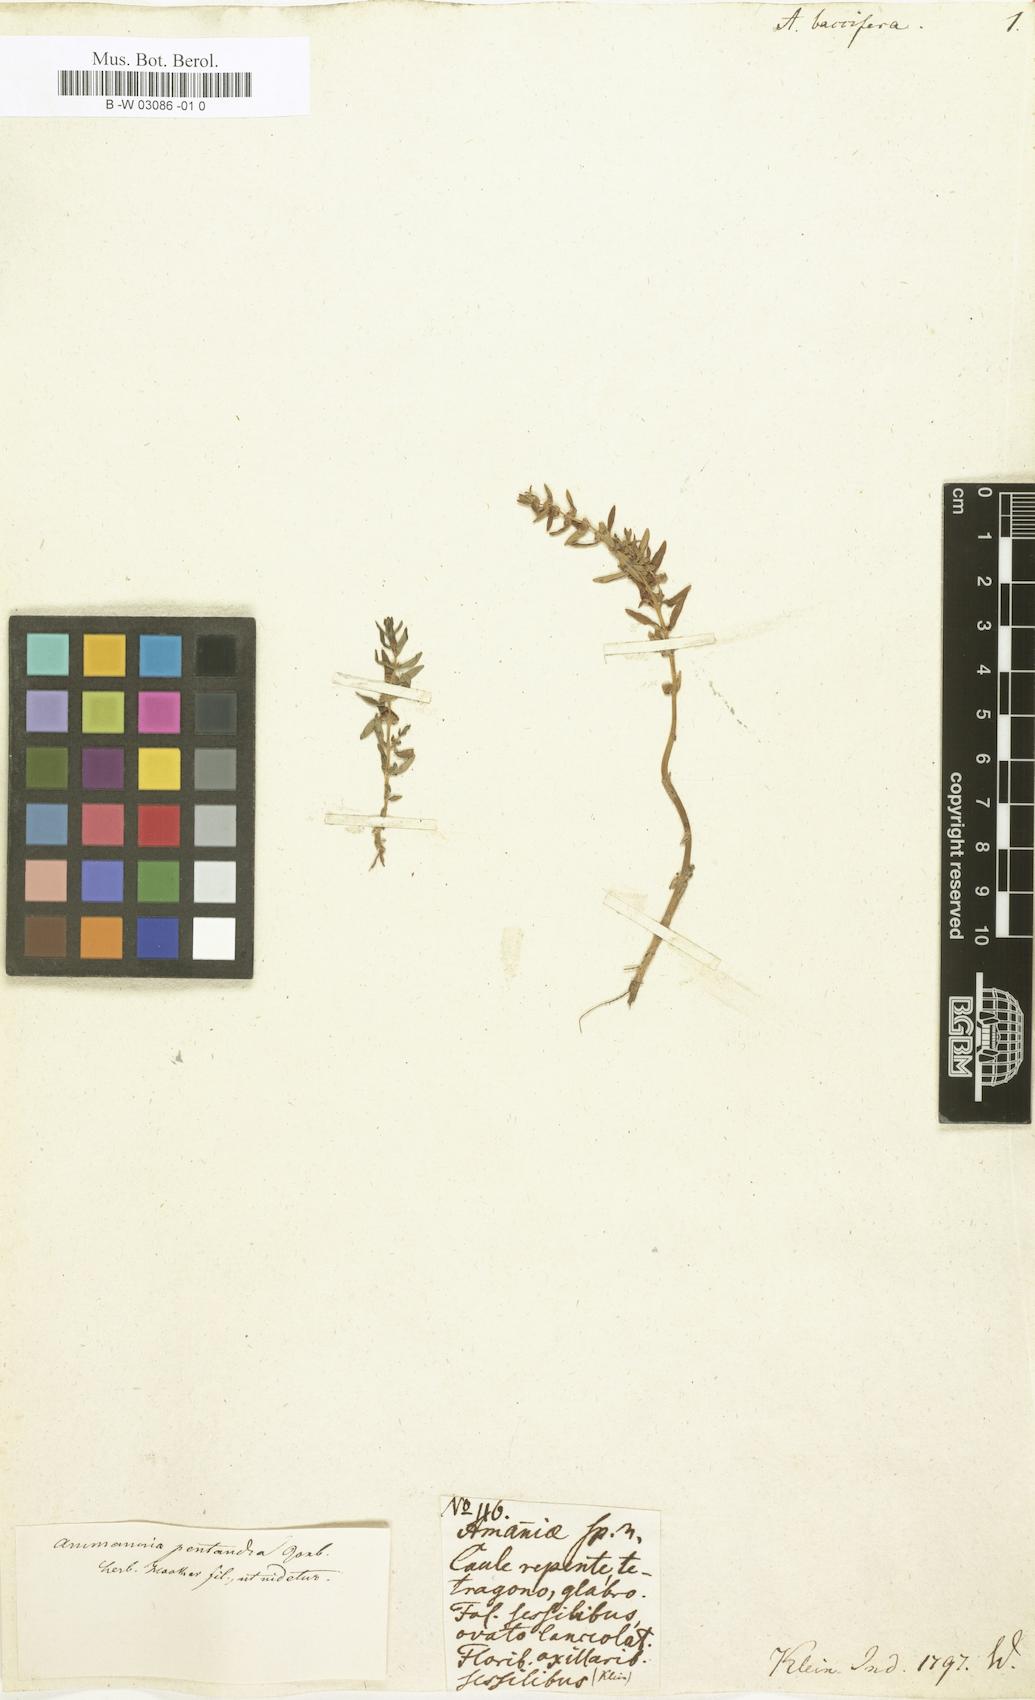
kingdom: Plantae
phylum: Tracheophyta
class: Magnoliopsida
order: Myrtales
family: Lythraceae
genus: Ammannia
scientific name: Ammannia baccifera
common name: Blistering ammania
